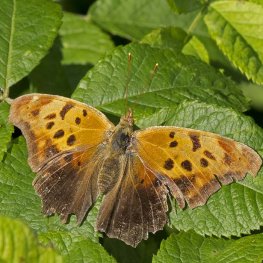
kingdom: Animalia
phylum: Arthropoda
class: Insecta
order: Lepidoptera
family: Nymphalidae
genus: Polygonia
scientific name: Polygonia interrogationis
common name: Question Mark
